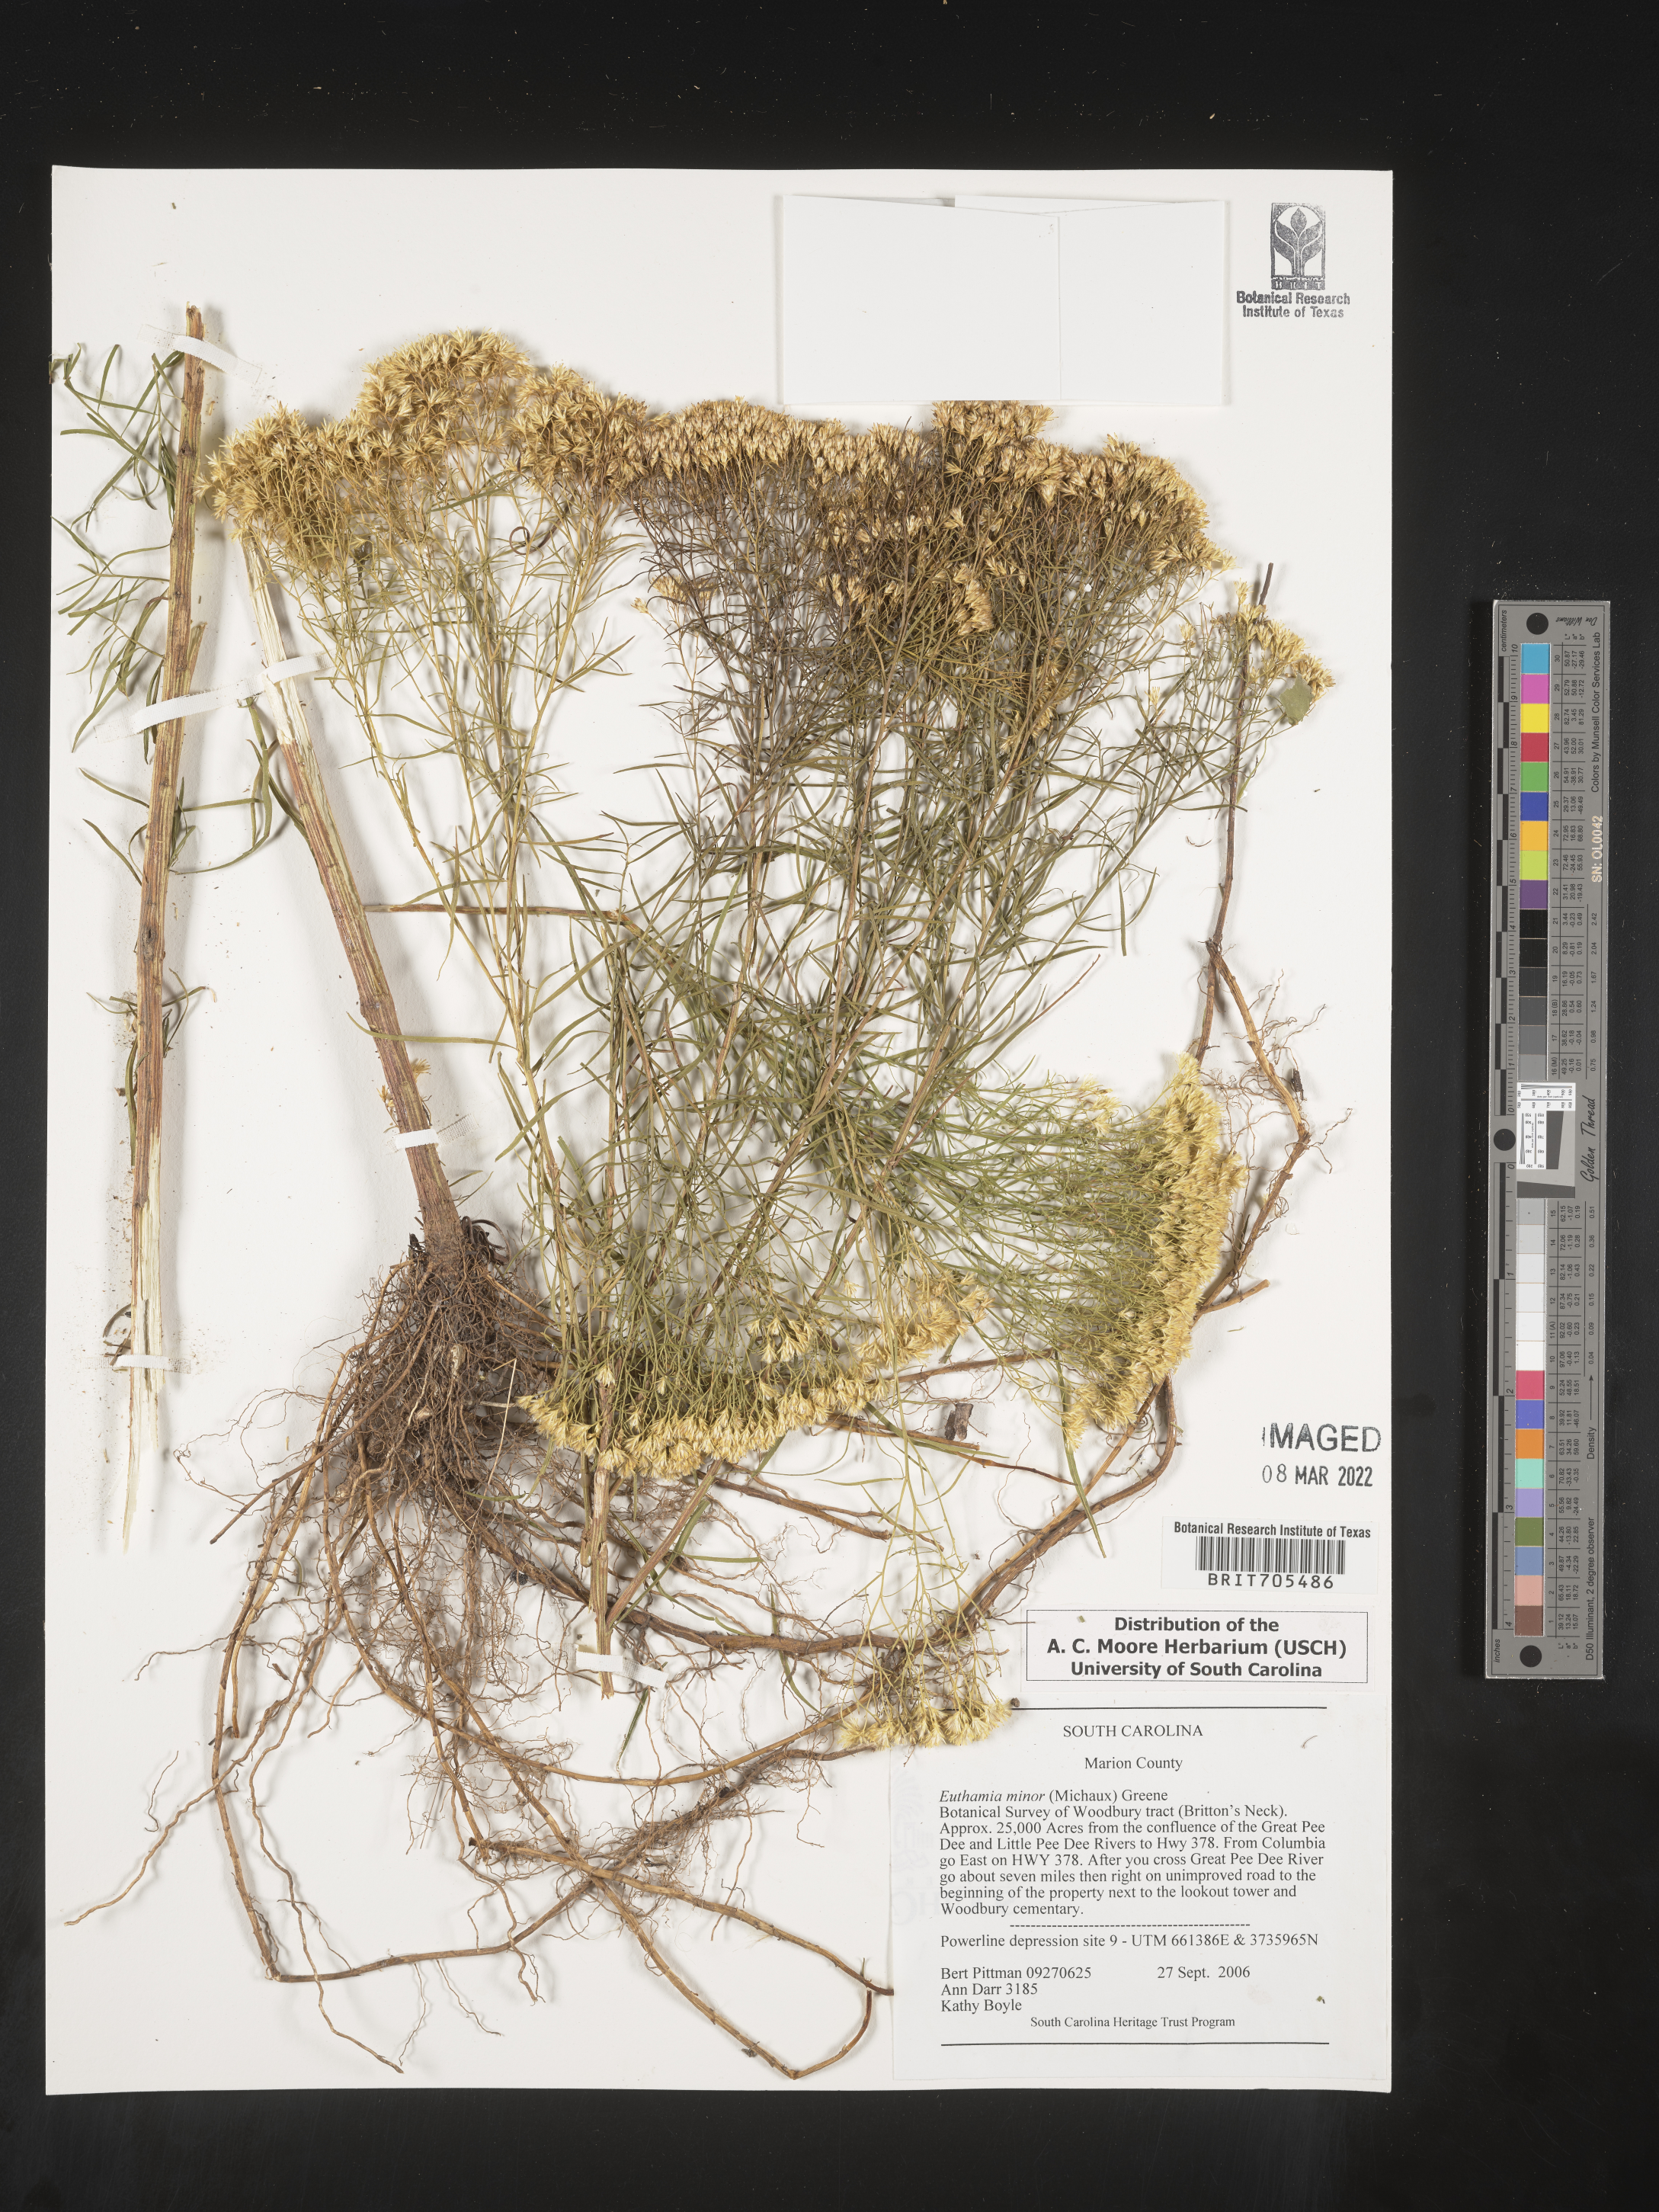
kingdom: Plantae
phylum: Tracheophyta
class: Magnoliopsida
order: Asterales
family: Asteraceae
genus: Euthamia
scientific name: Euthamia caroliniana
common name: Coastal plain goldentop
